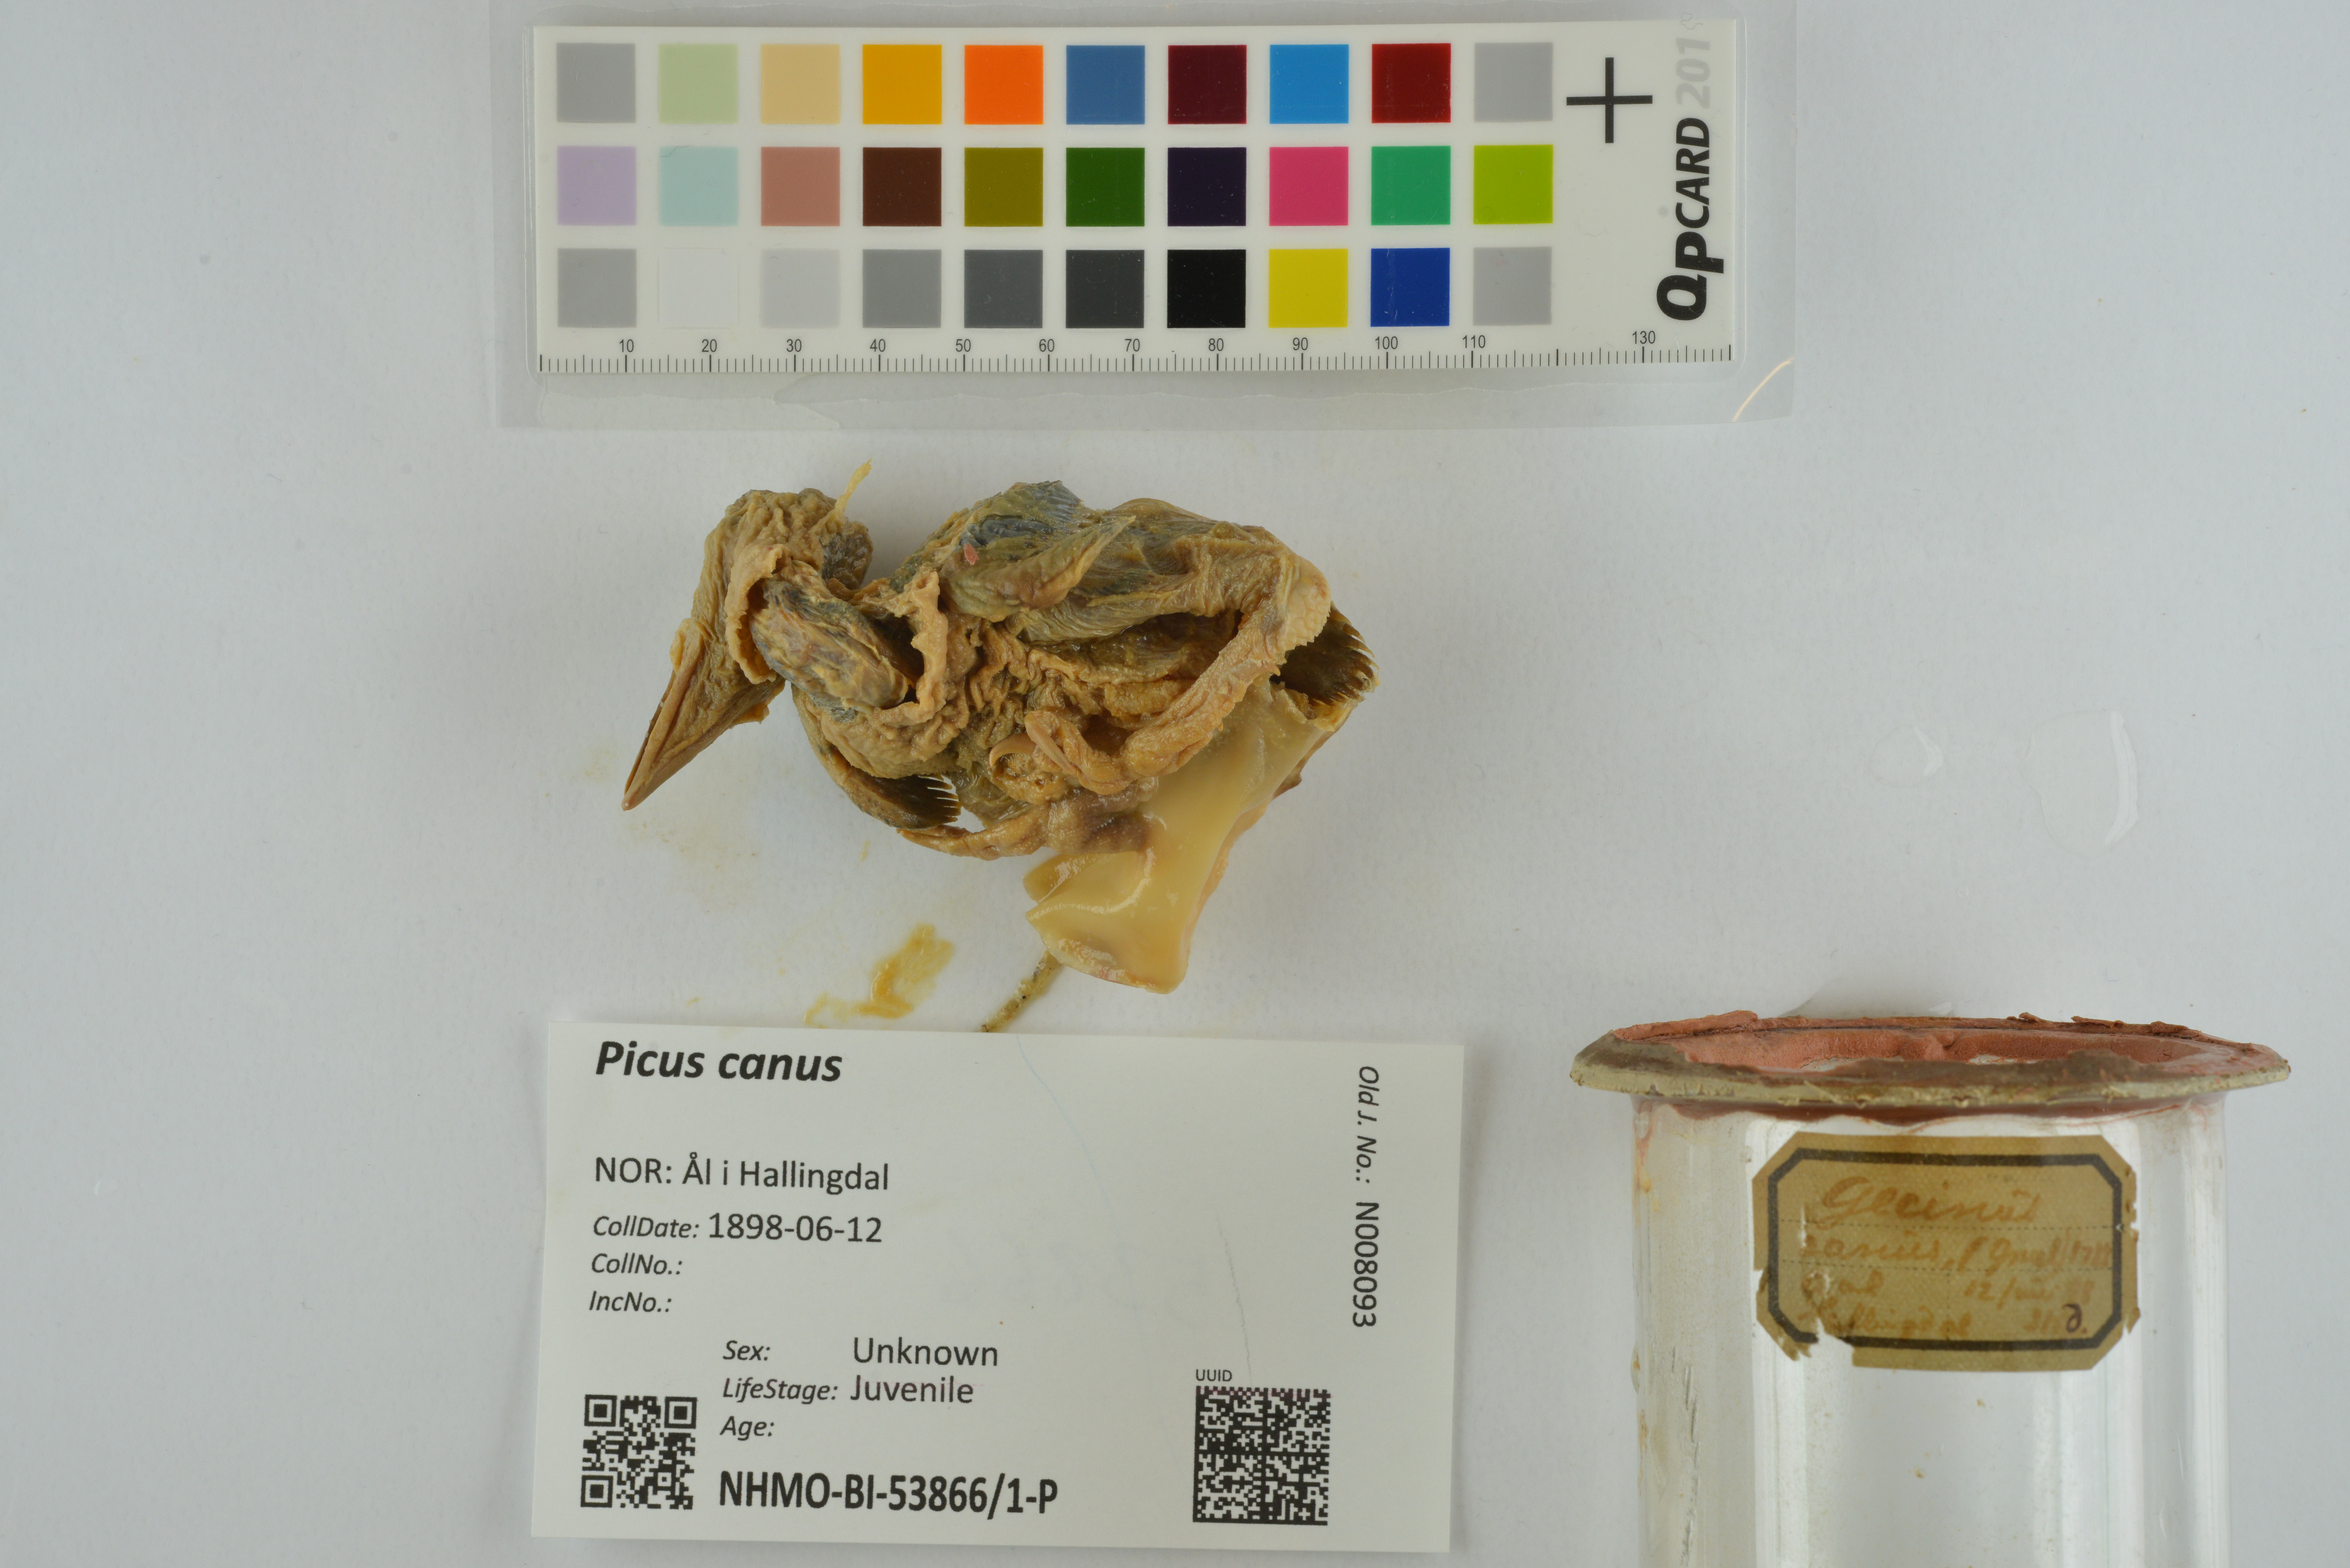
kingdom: Animalia
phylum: Chordata
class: Aves
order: Piciformes
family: Picidae
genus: Picus
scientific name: Picus canus
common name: Grey-headed woodpecker
